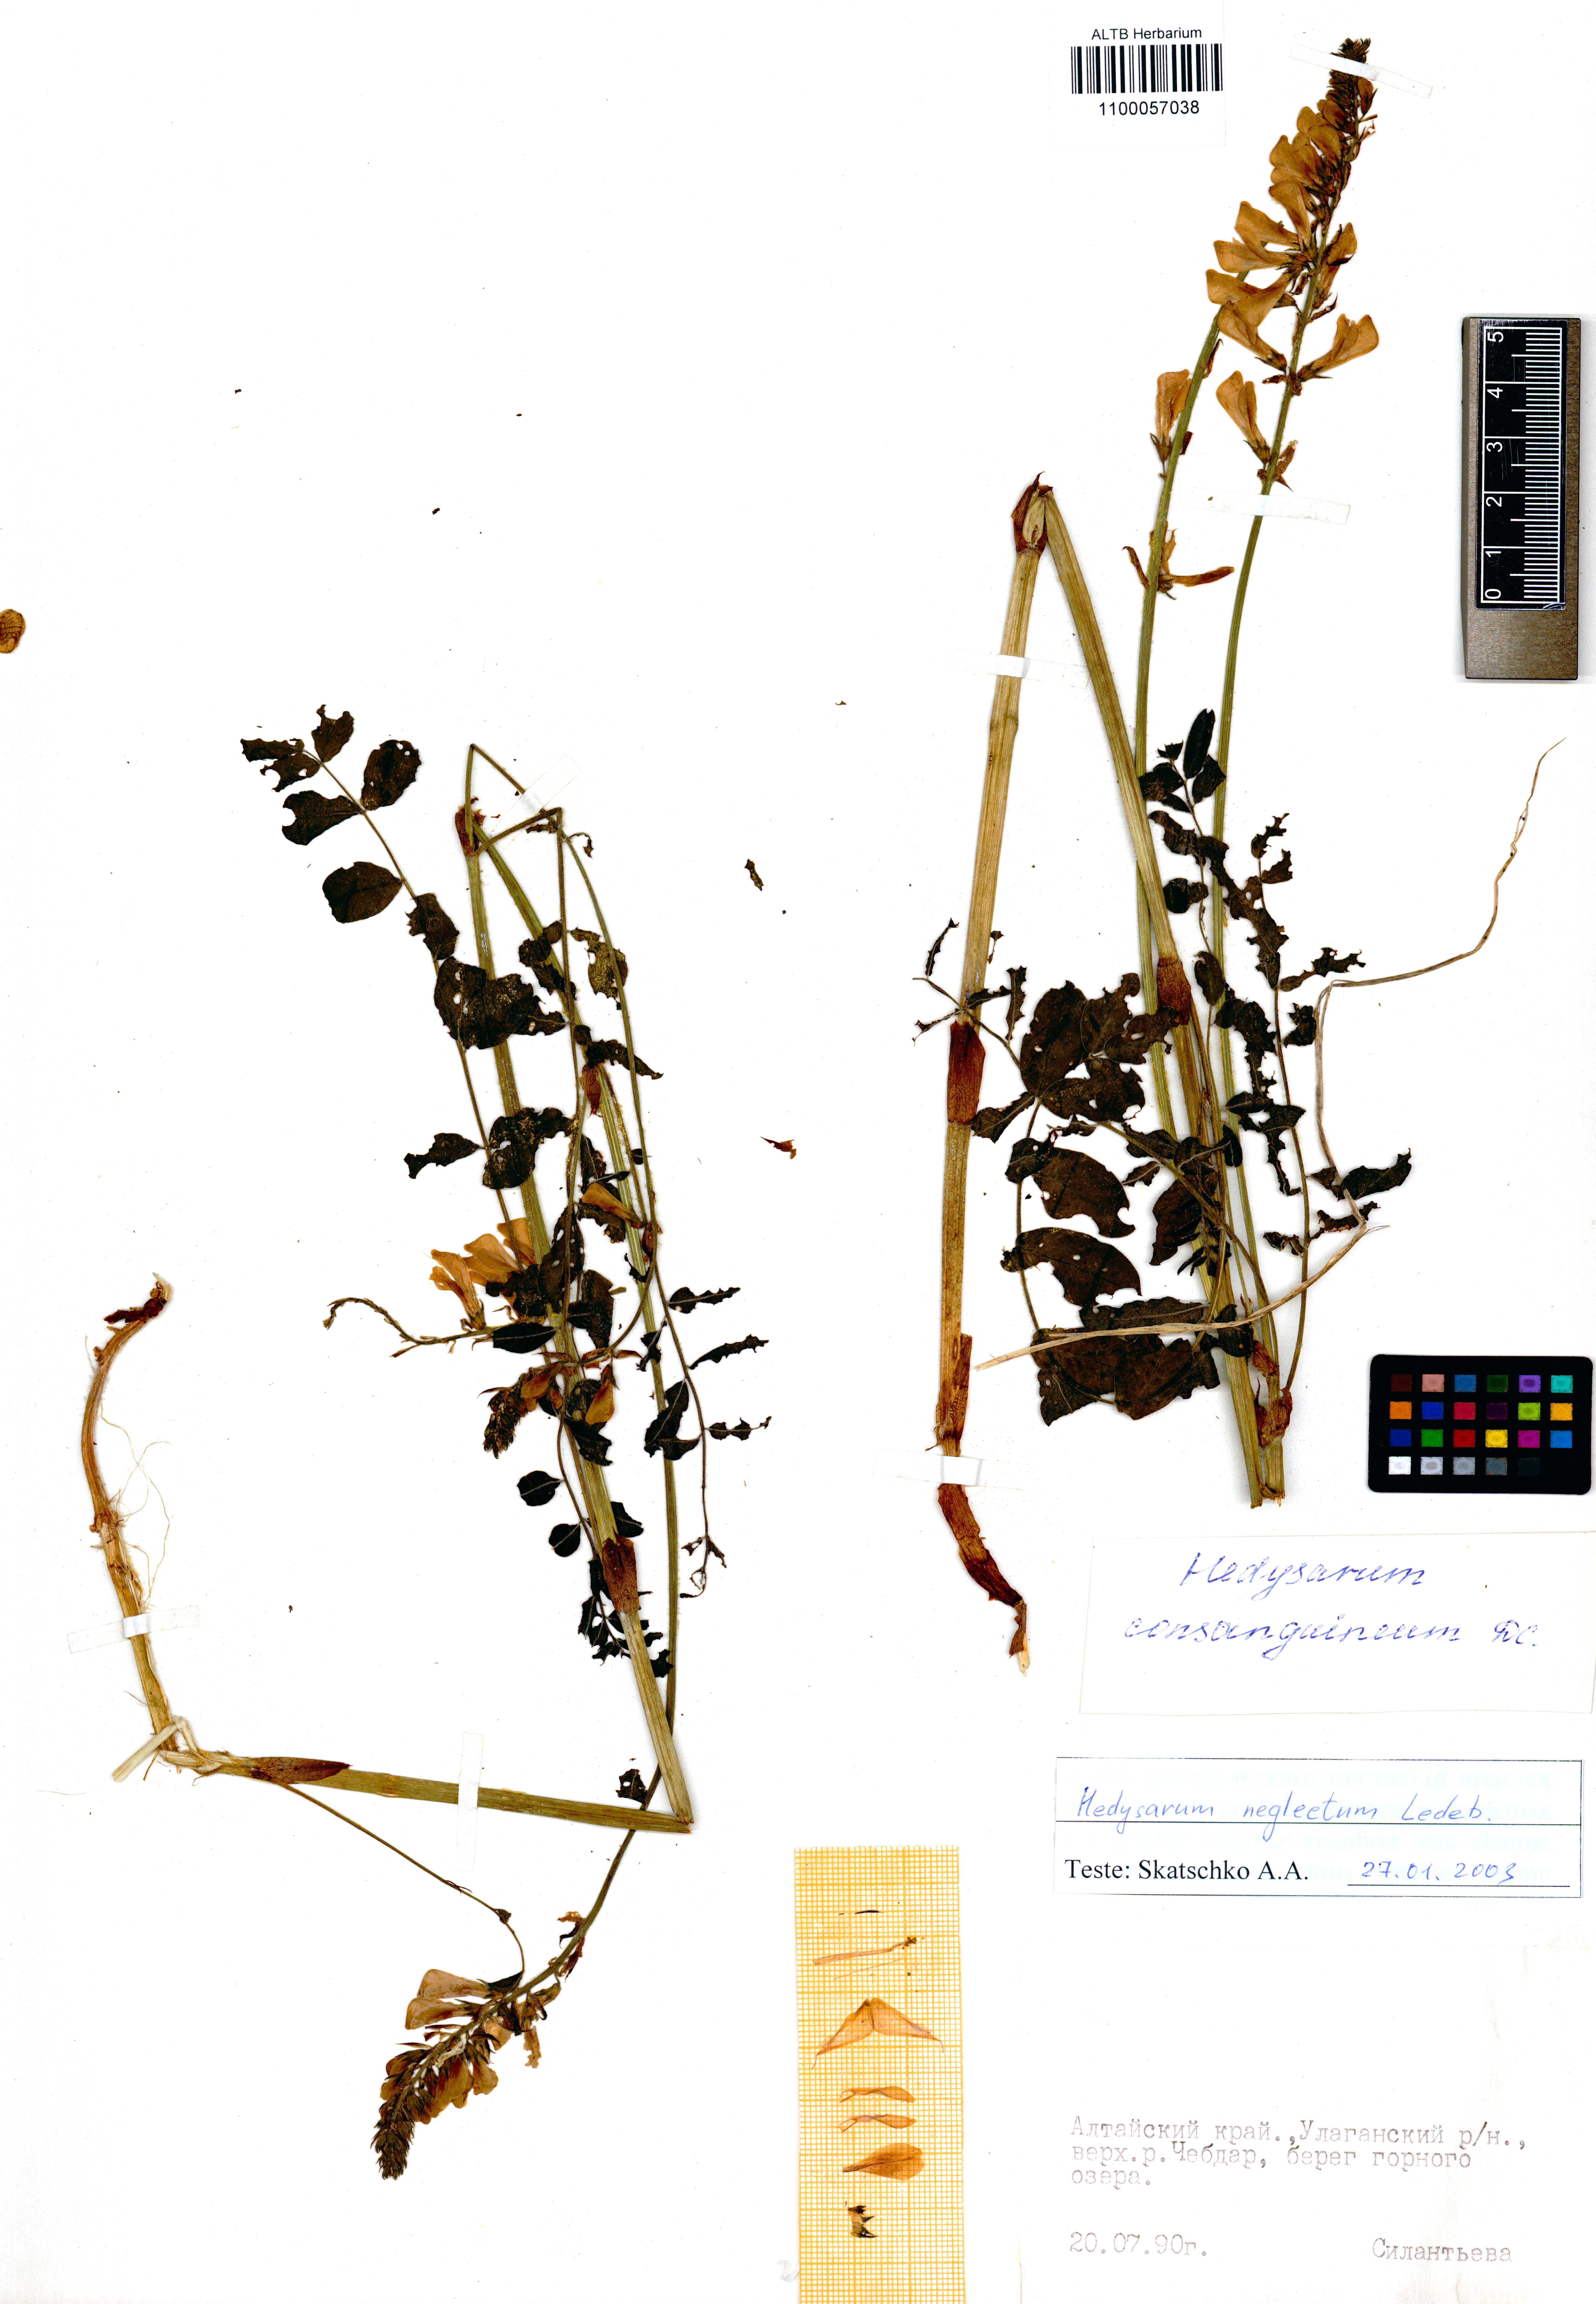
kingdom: Plantae
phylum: Tracheophyta
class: Magnoliopsida
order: Fabales
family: Fabaceae
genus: Hedysarum
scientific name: Hedysarum neglectum
